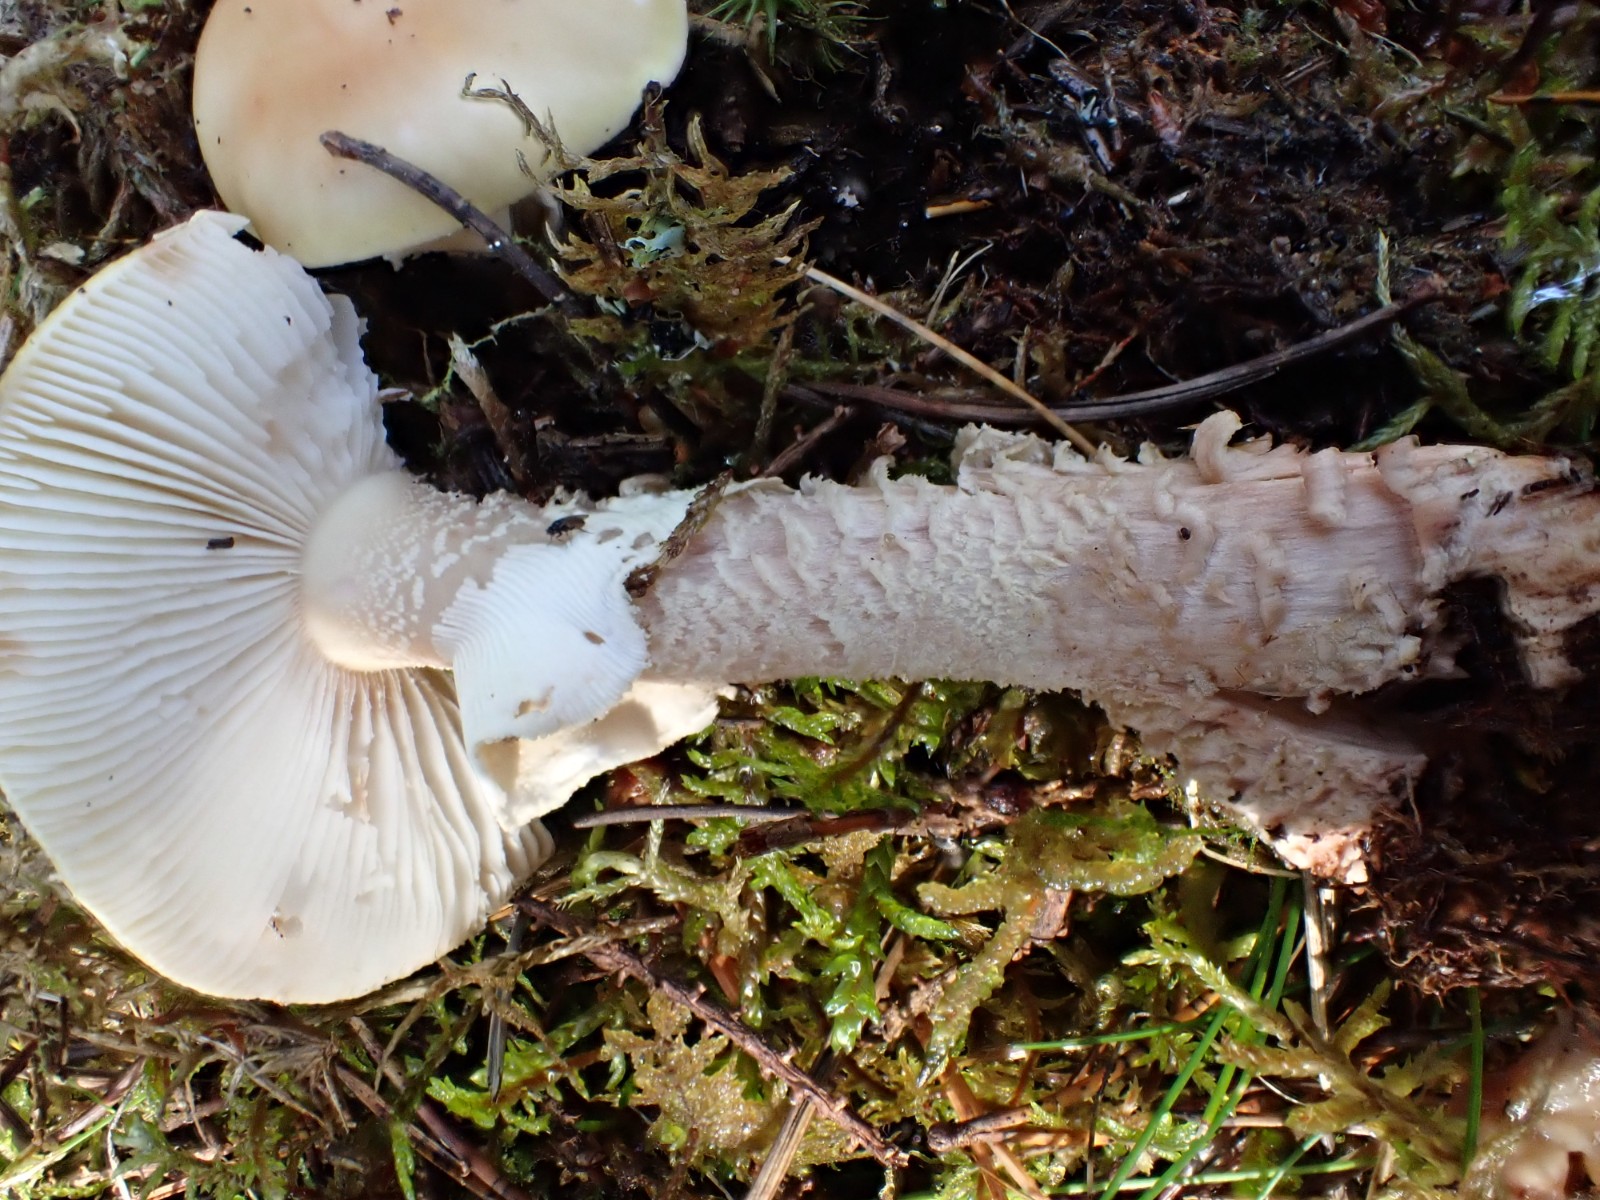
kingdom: Fungi
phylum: Basidiomycota
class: Agaricomycetes
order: Agaricales
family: Amanitaceae
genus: Amanita
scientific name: Amanita rubescens
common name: rødmende fluesvamp
